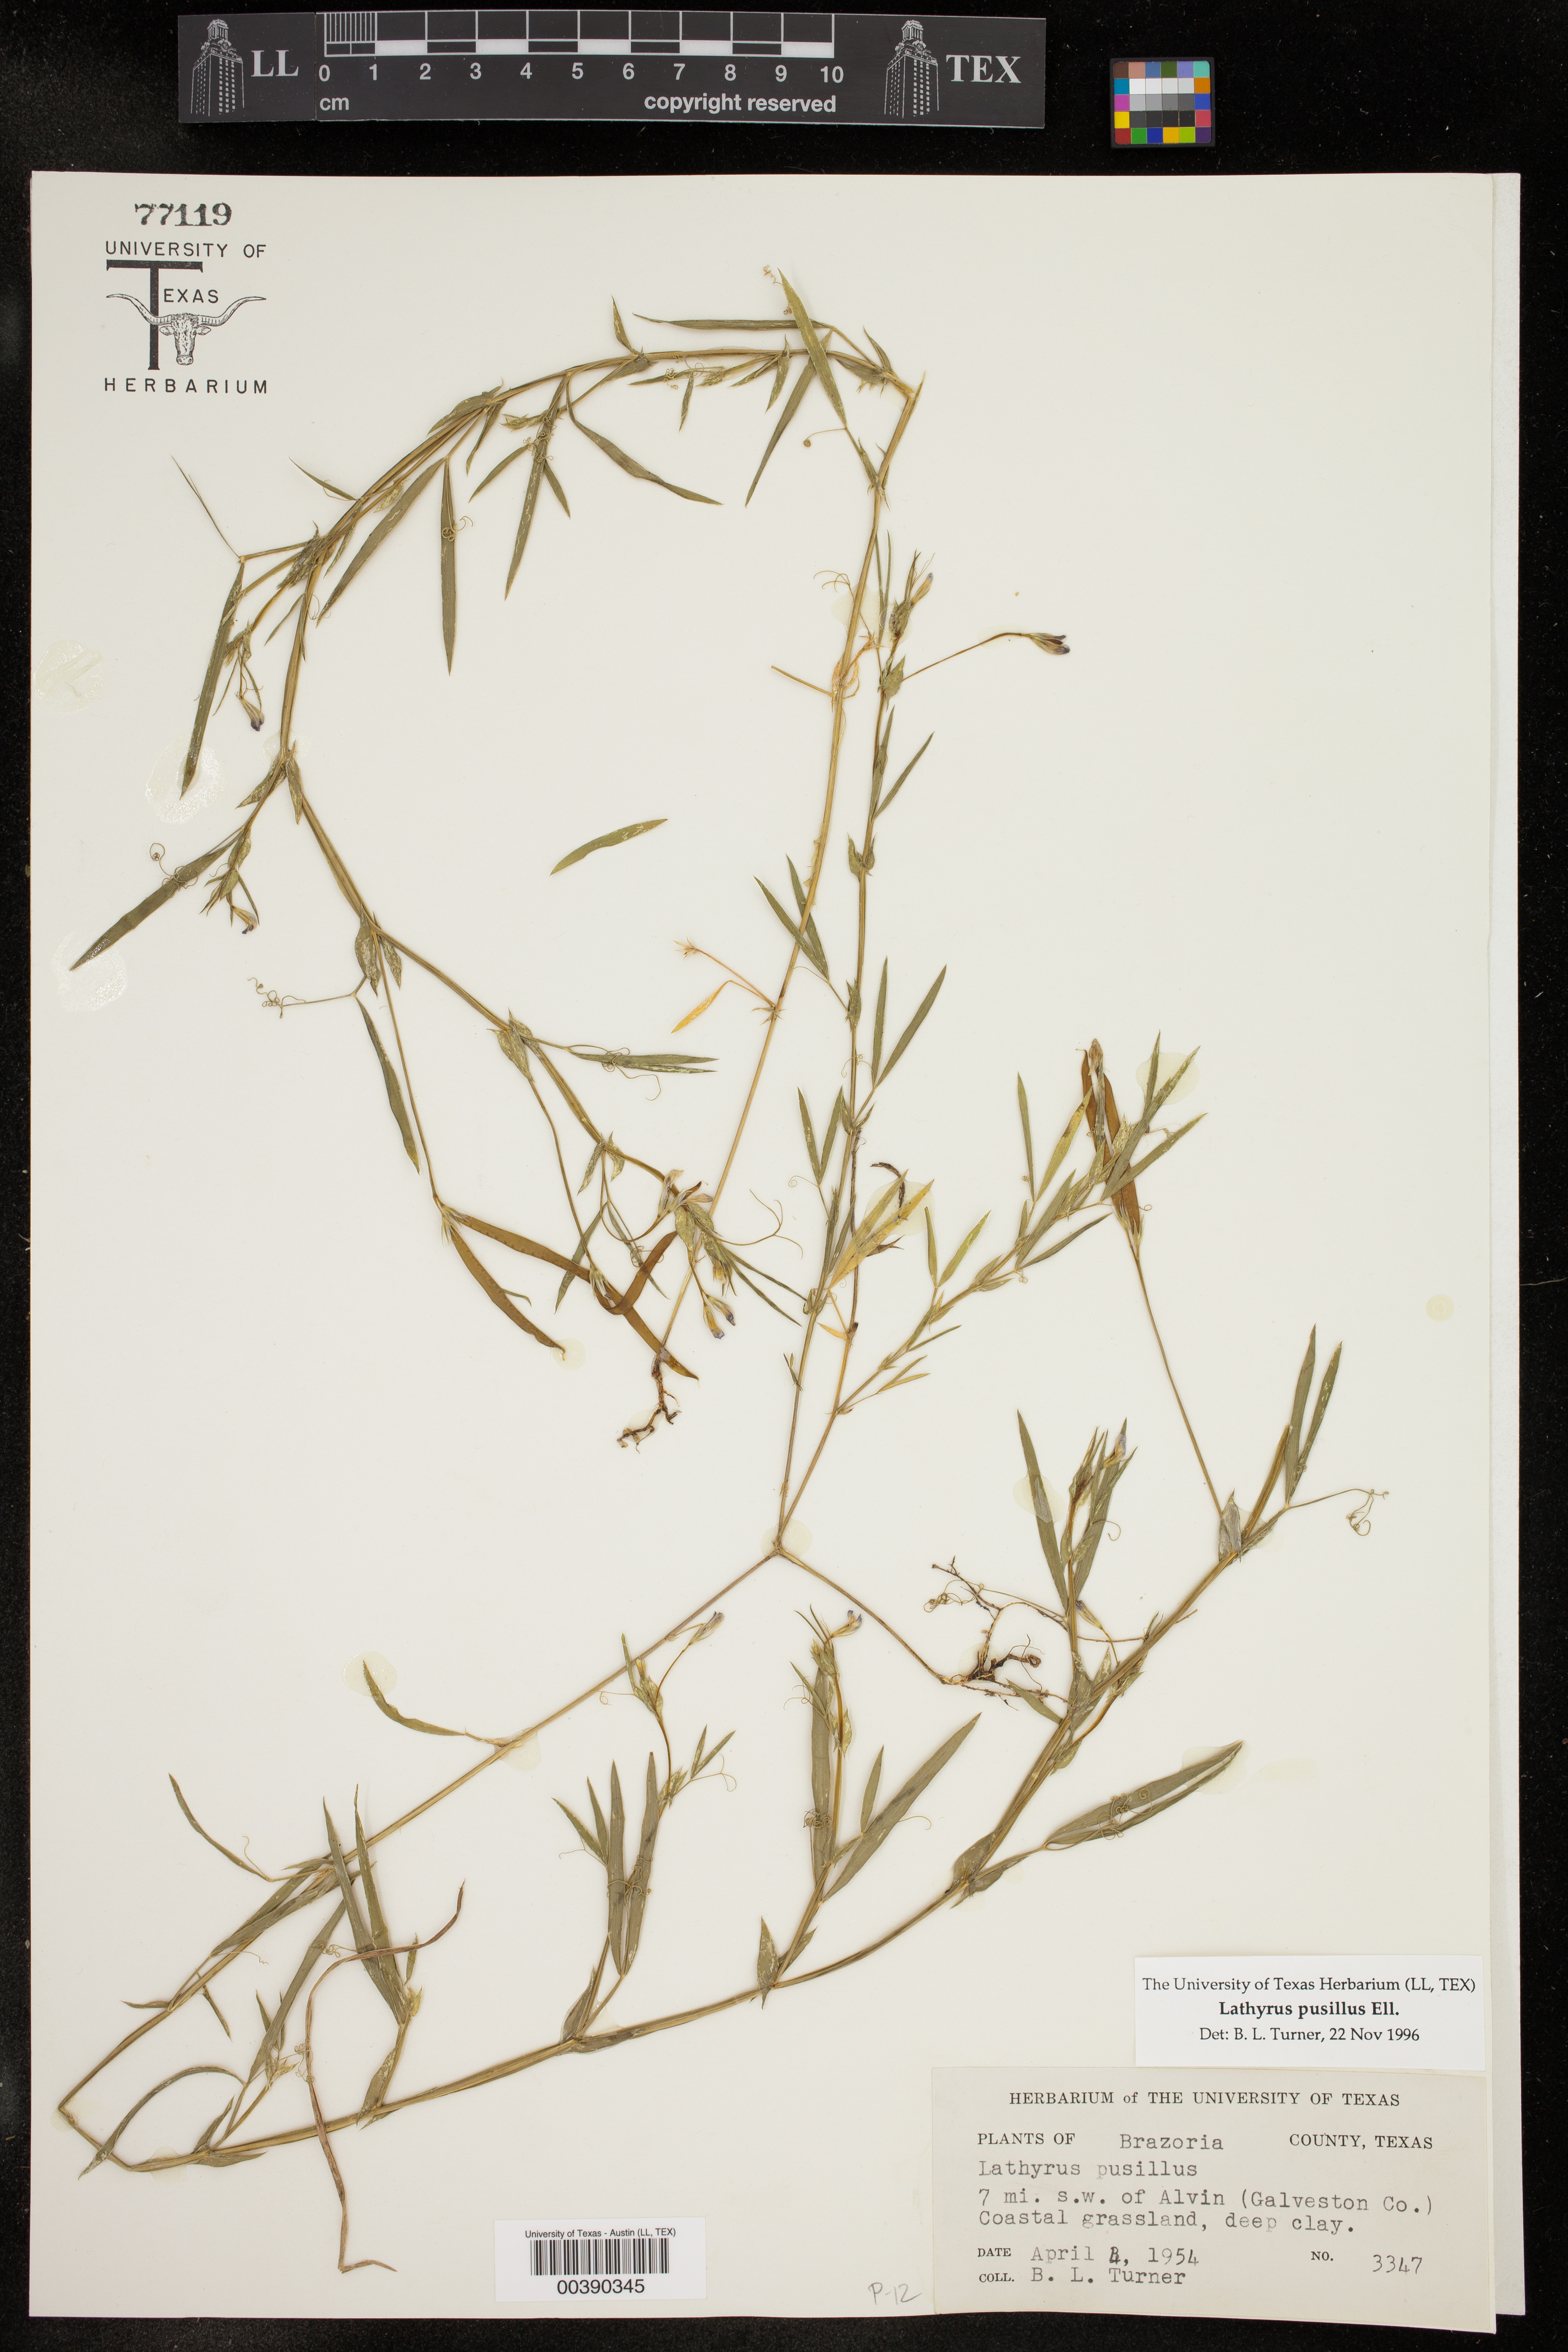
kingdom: Plantae
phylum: Tracheophyta
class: Magnoliopsida
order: Fabales
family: Fabaceae
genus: Lathyrus
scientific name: Lathyrus pusillus
